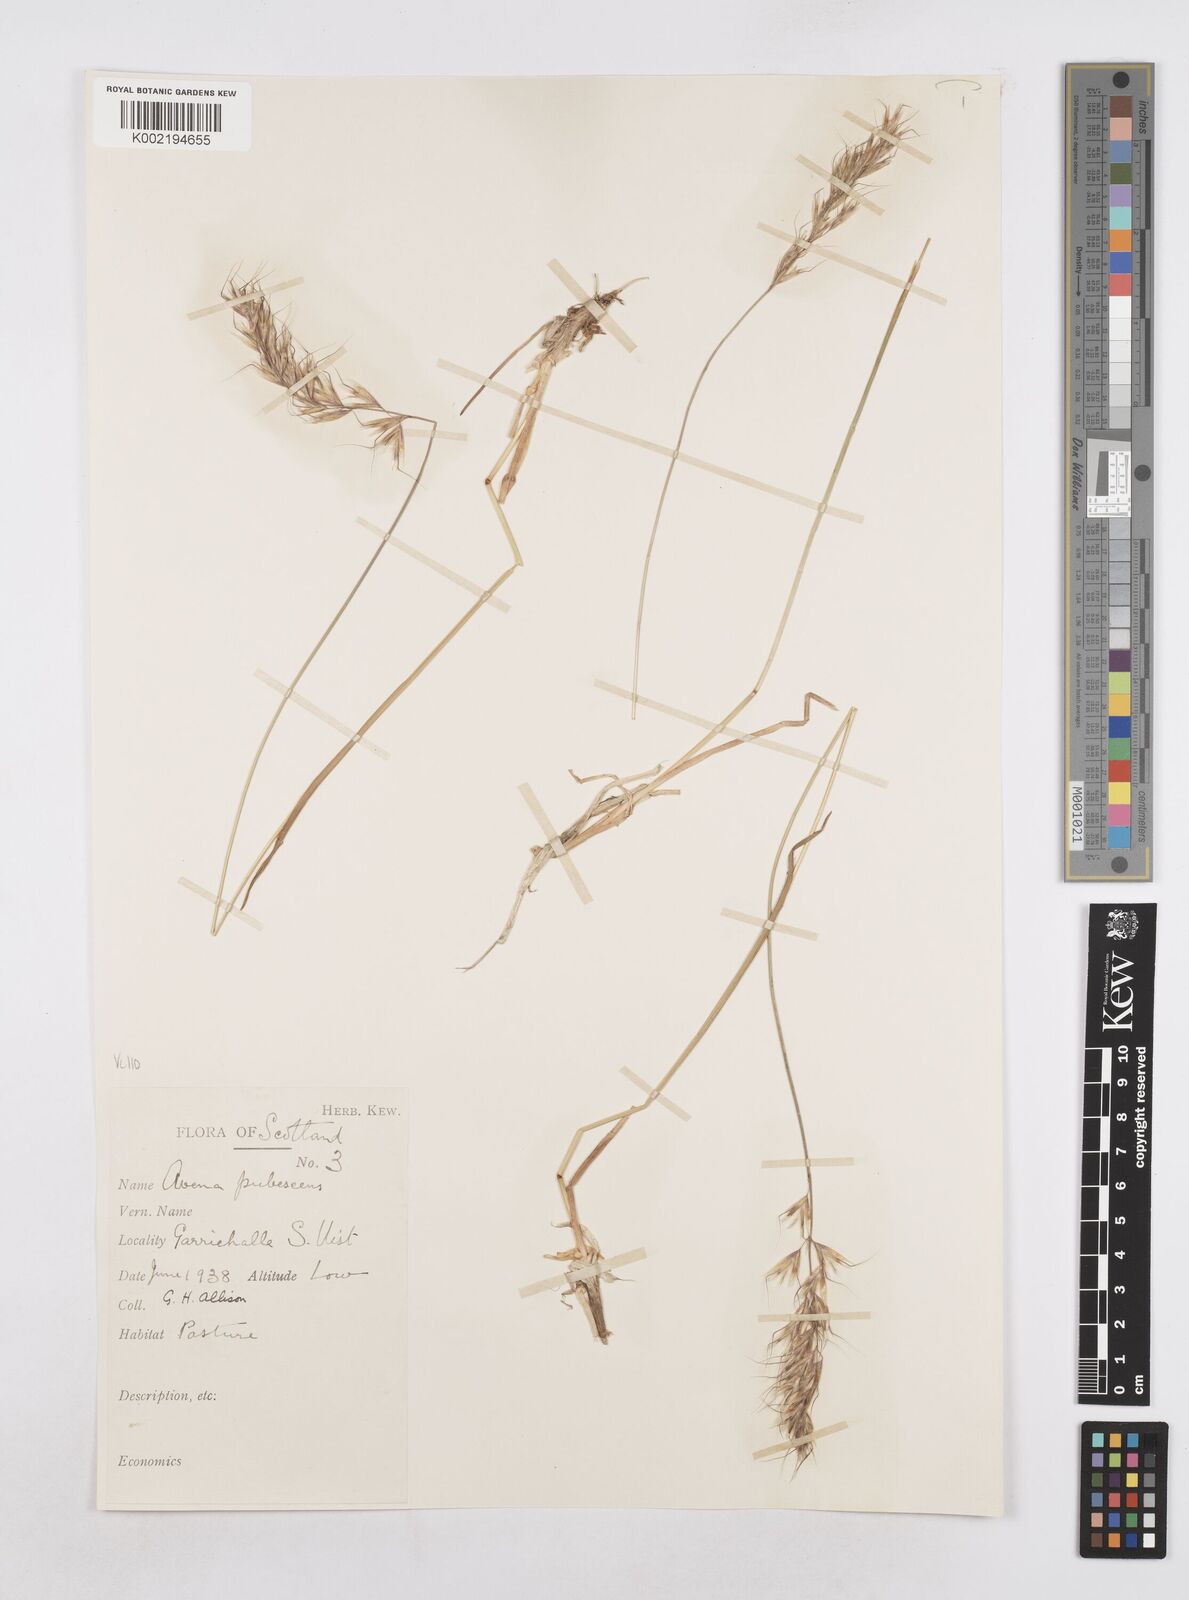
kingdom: Plantae
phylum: Tracheophyta
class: Liliopsida
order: Poales
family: Poaceae
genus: Avenula
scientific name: Avenula pubescens
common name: Downy alpine oatgrass
